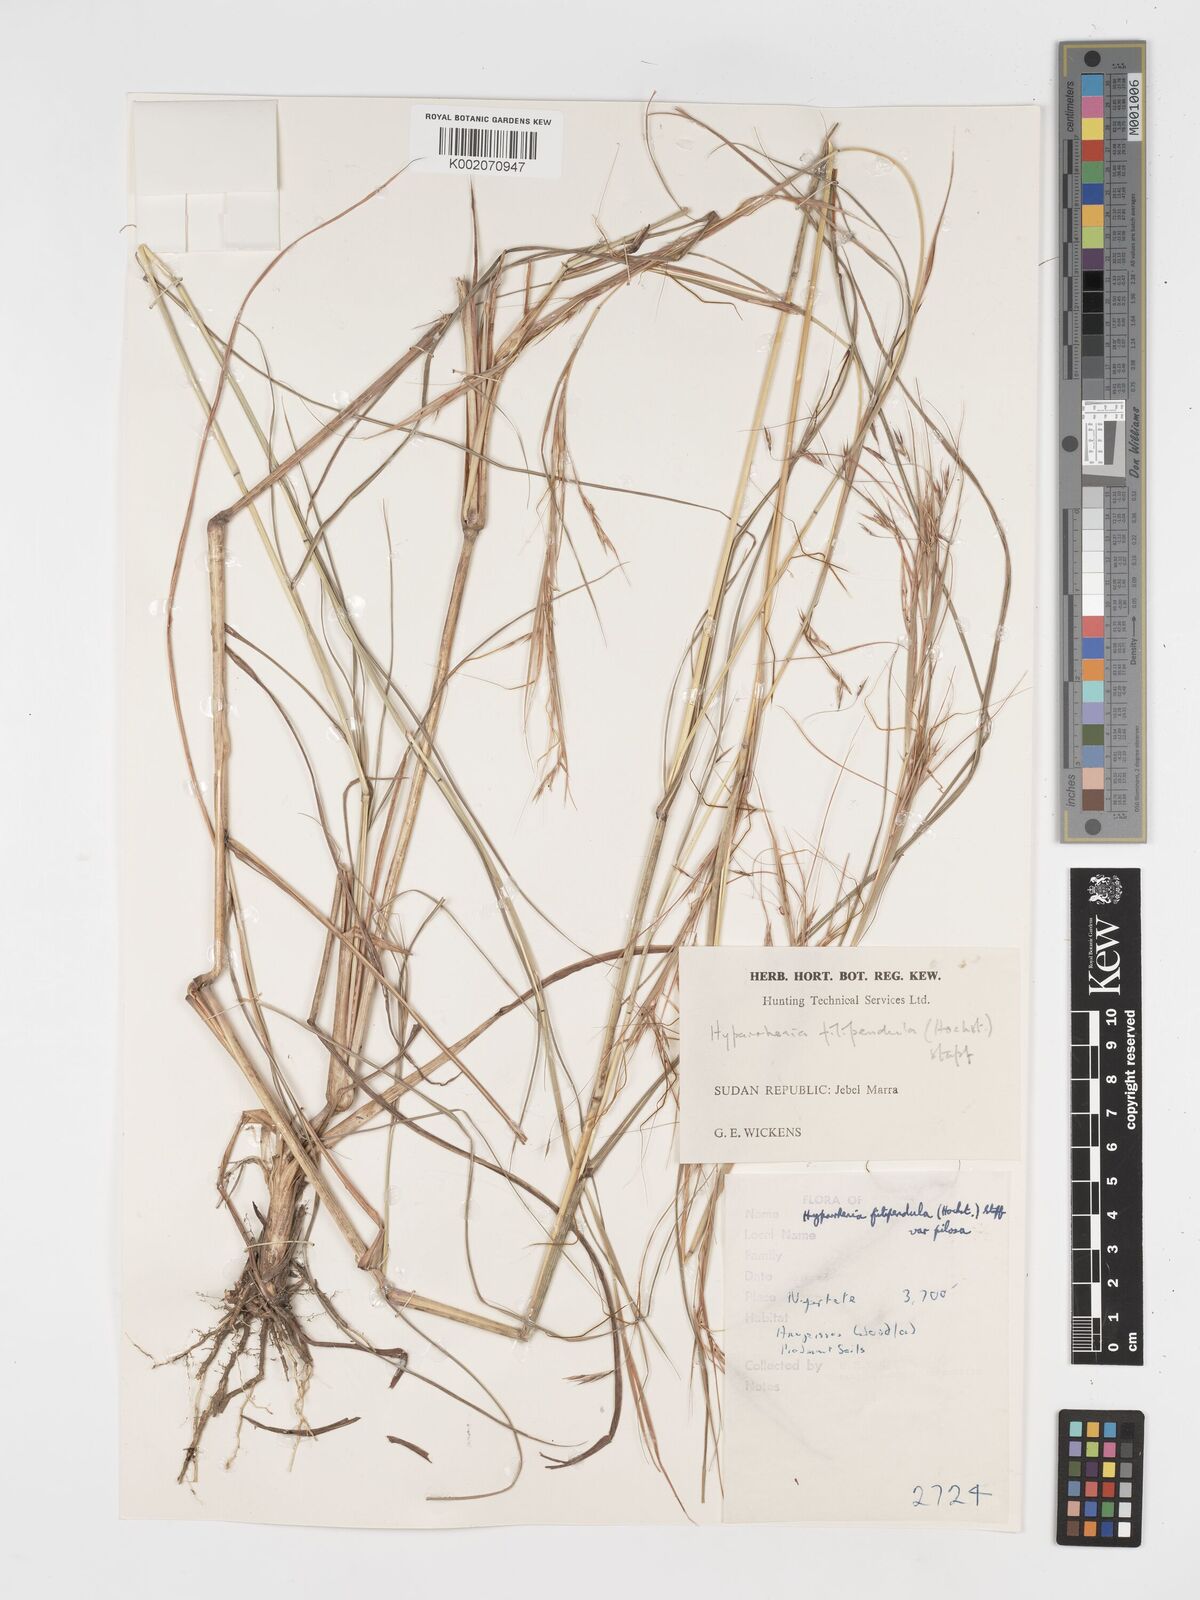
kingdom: Plantae
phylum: Tracheophyta
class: Liliopsida
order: Poales
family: Poaceae
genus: Hyparrhenia
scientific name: Hyparrhenia filipendula
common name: Tambookie grass
